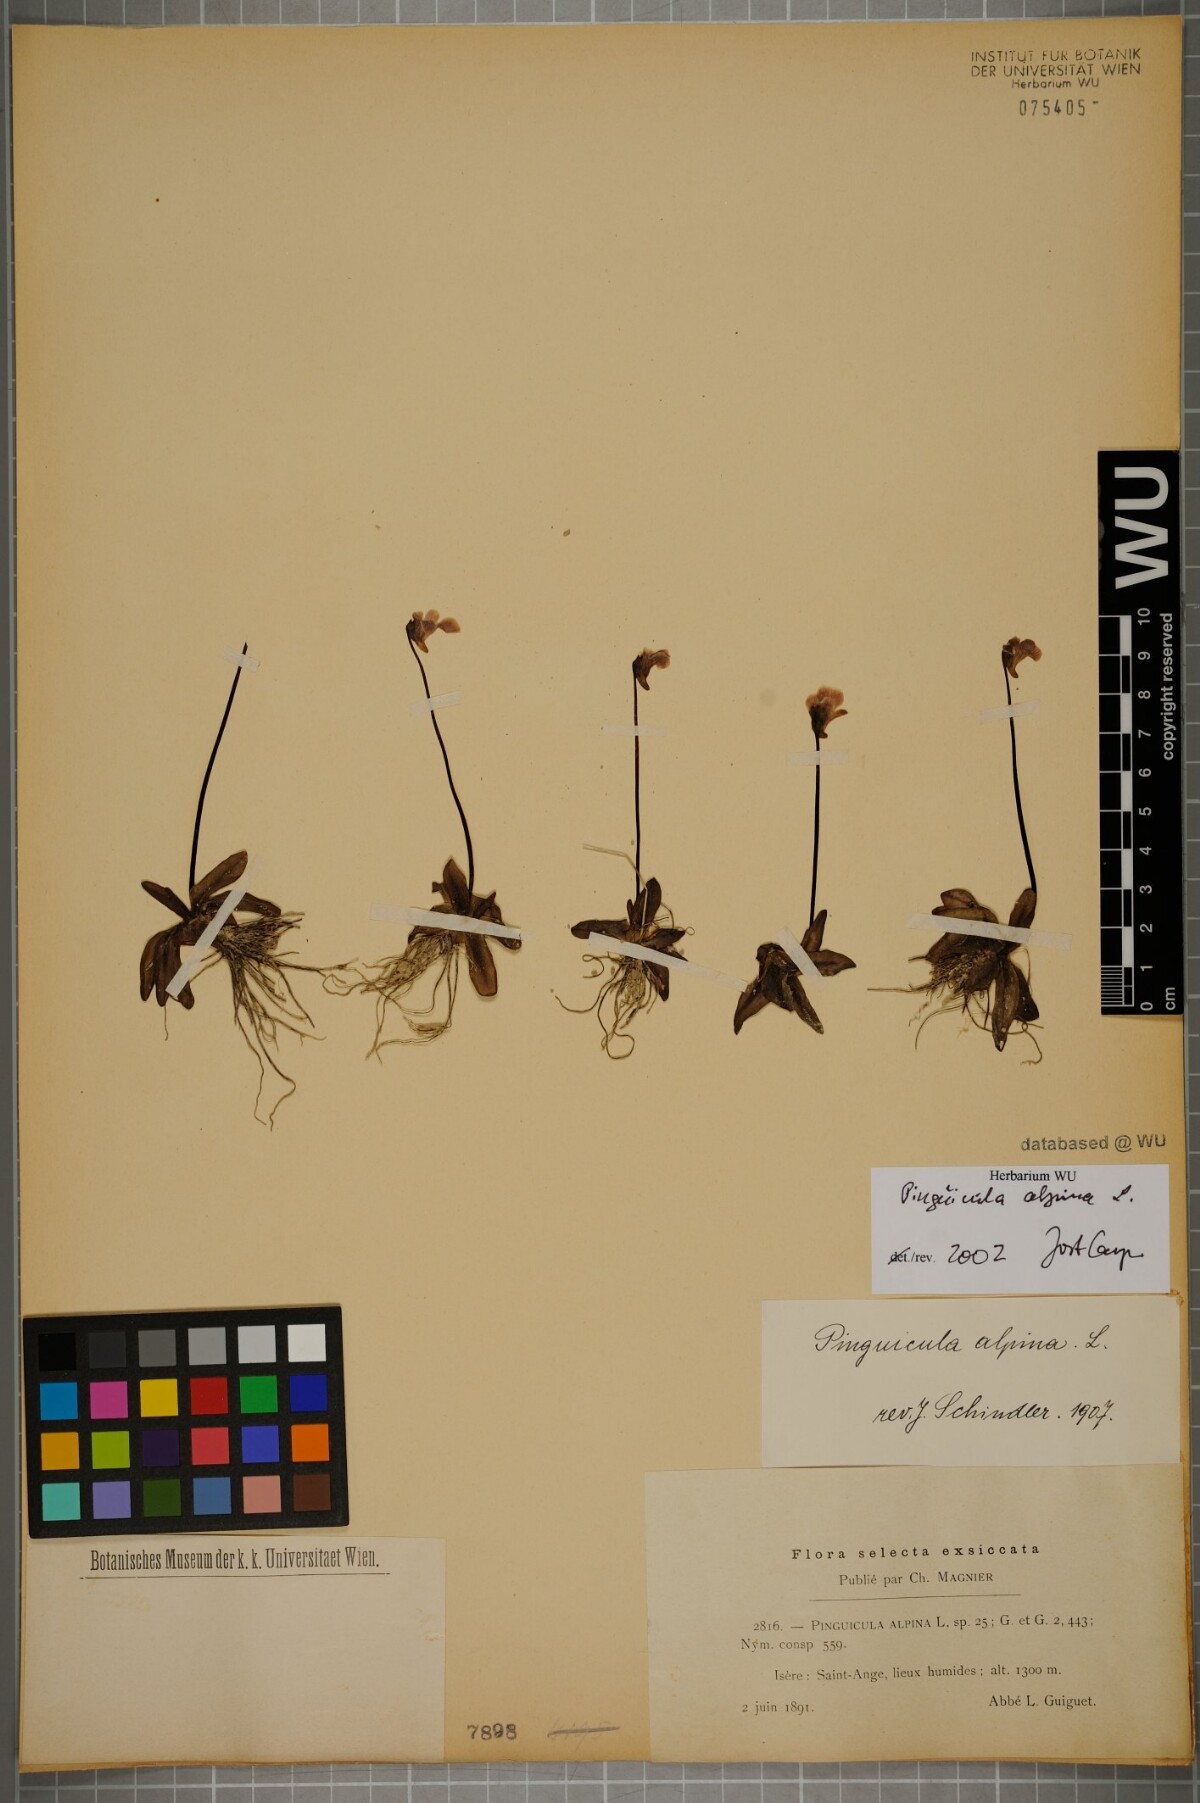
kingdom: Plantae
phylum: Tracheophyta
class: Magnoliopsida
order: Lamiales
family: Lentibulariaceae
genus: Pinguicula
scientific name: Pinguicula alpina
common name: Alpine butterwort
